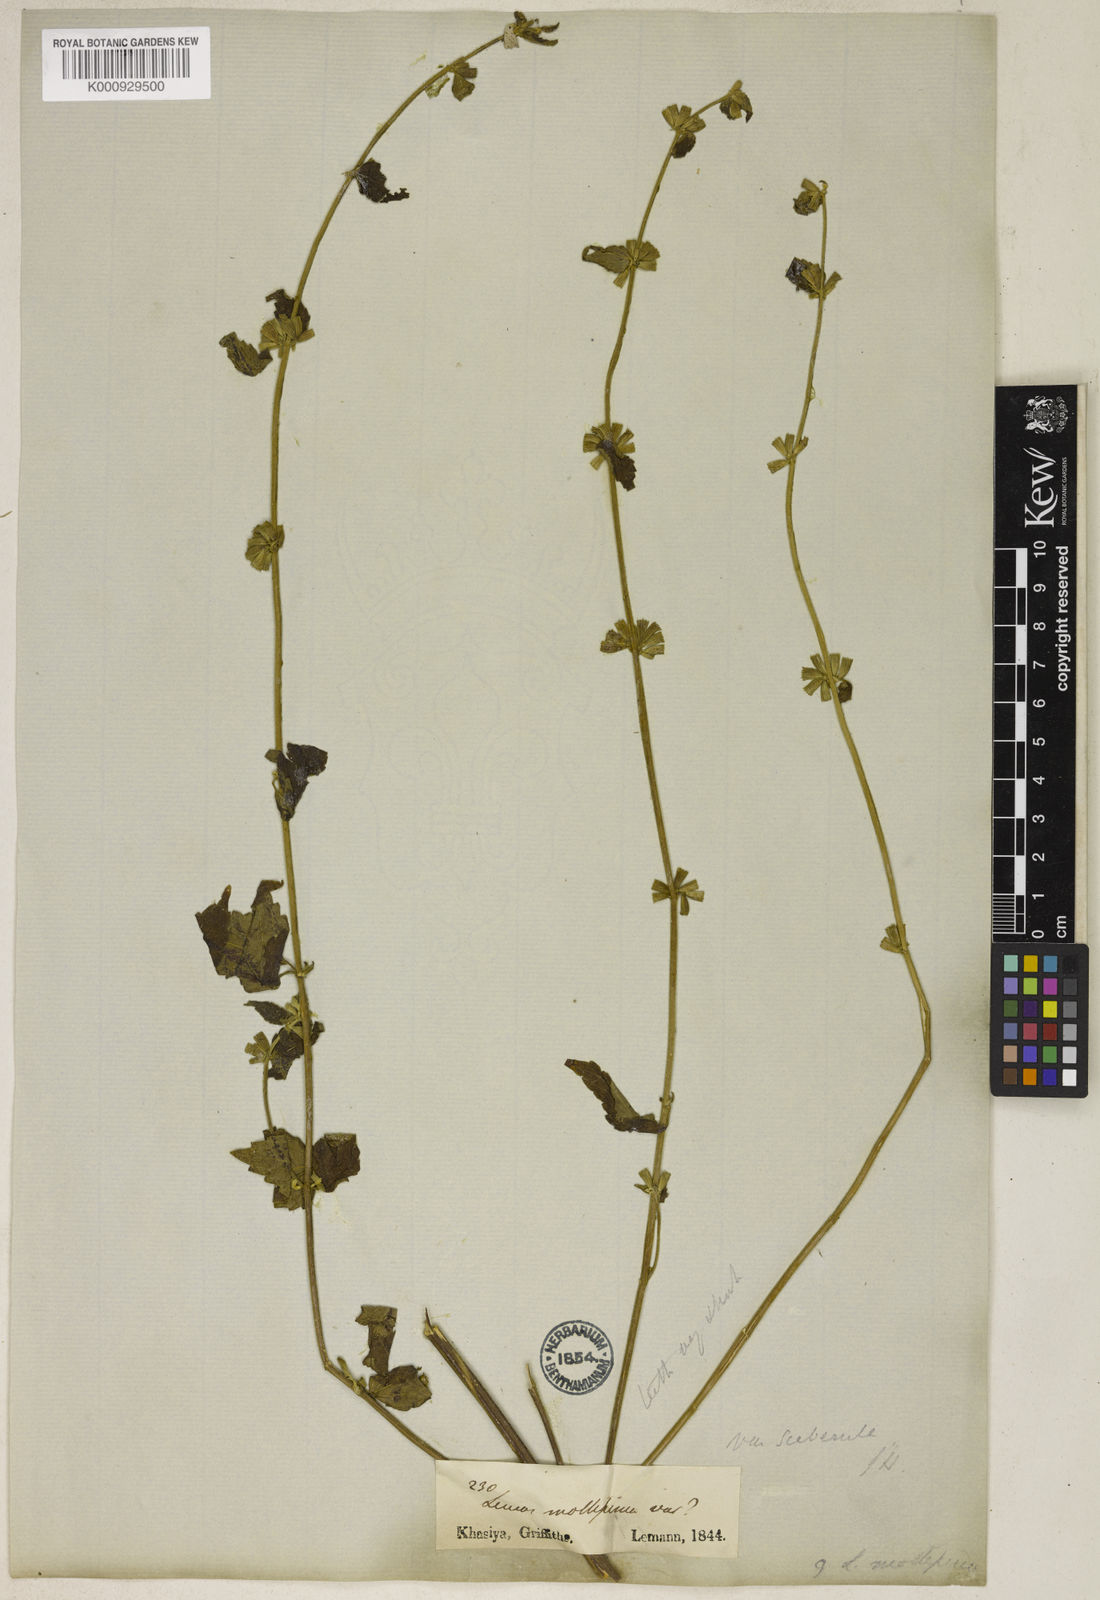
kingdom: Plantae
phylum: Tracheophyta
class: Magnoliopsida
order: Lamiales
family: Lamiaceae
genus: Leucas
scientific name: Leucas mollissima
